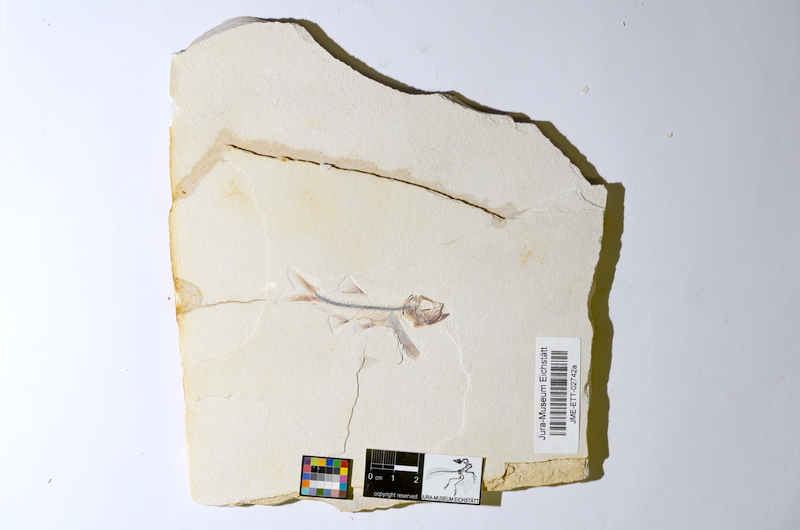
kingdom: Animalia
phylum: Chordata
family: Ascalaboidae
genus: Ebertichthys
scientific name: Ebertichthys ettlingensis
